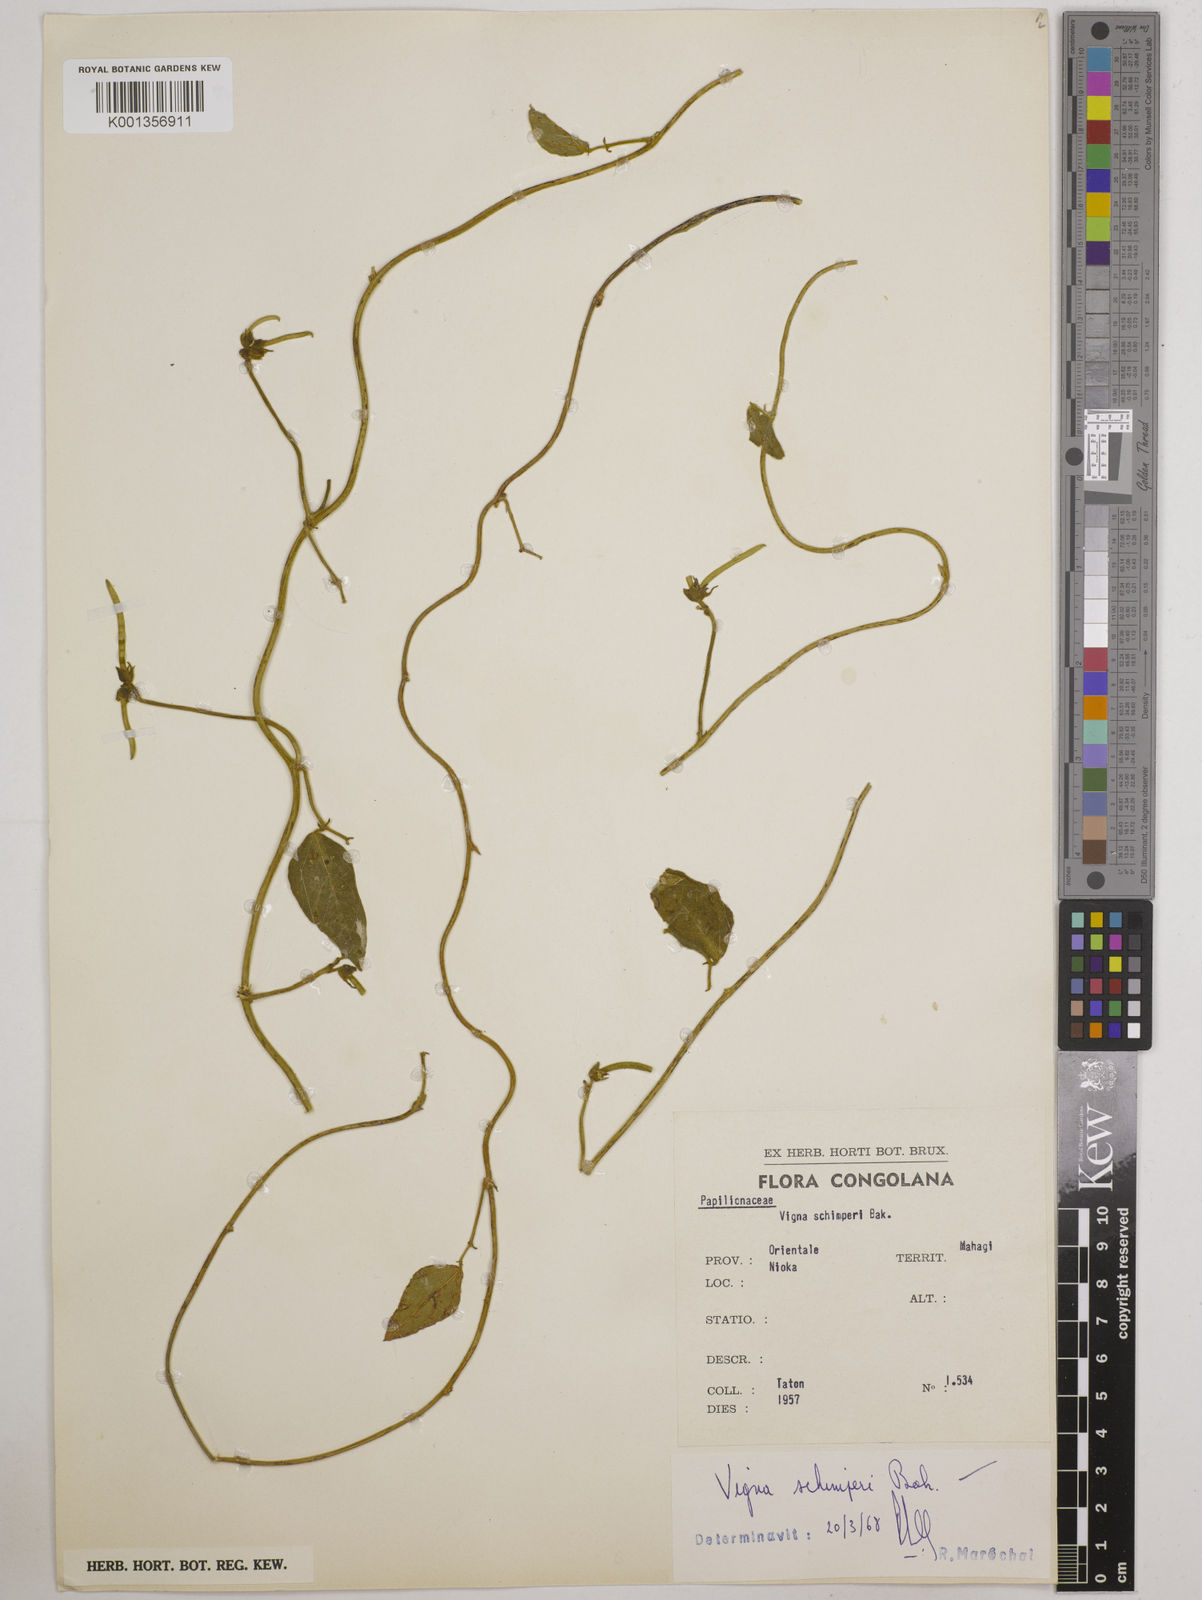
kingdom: Plantae
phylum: Tracheophyta
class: Magnoliopsida
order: Fabales
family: Fabaceae
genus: Vigna
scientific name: Vigna schimperi
